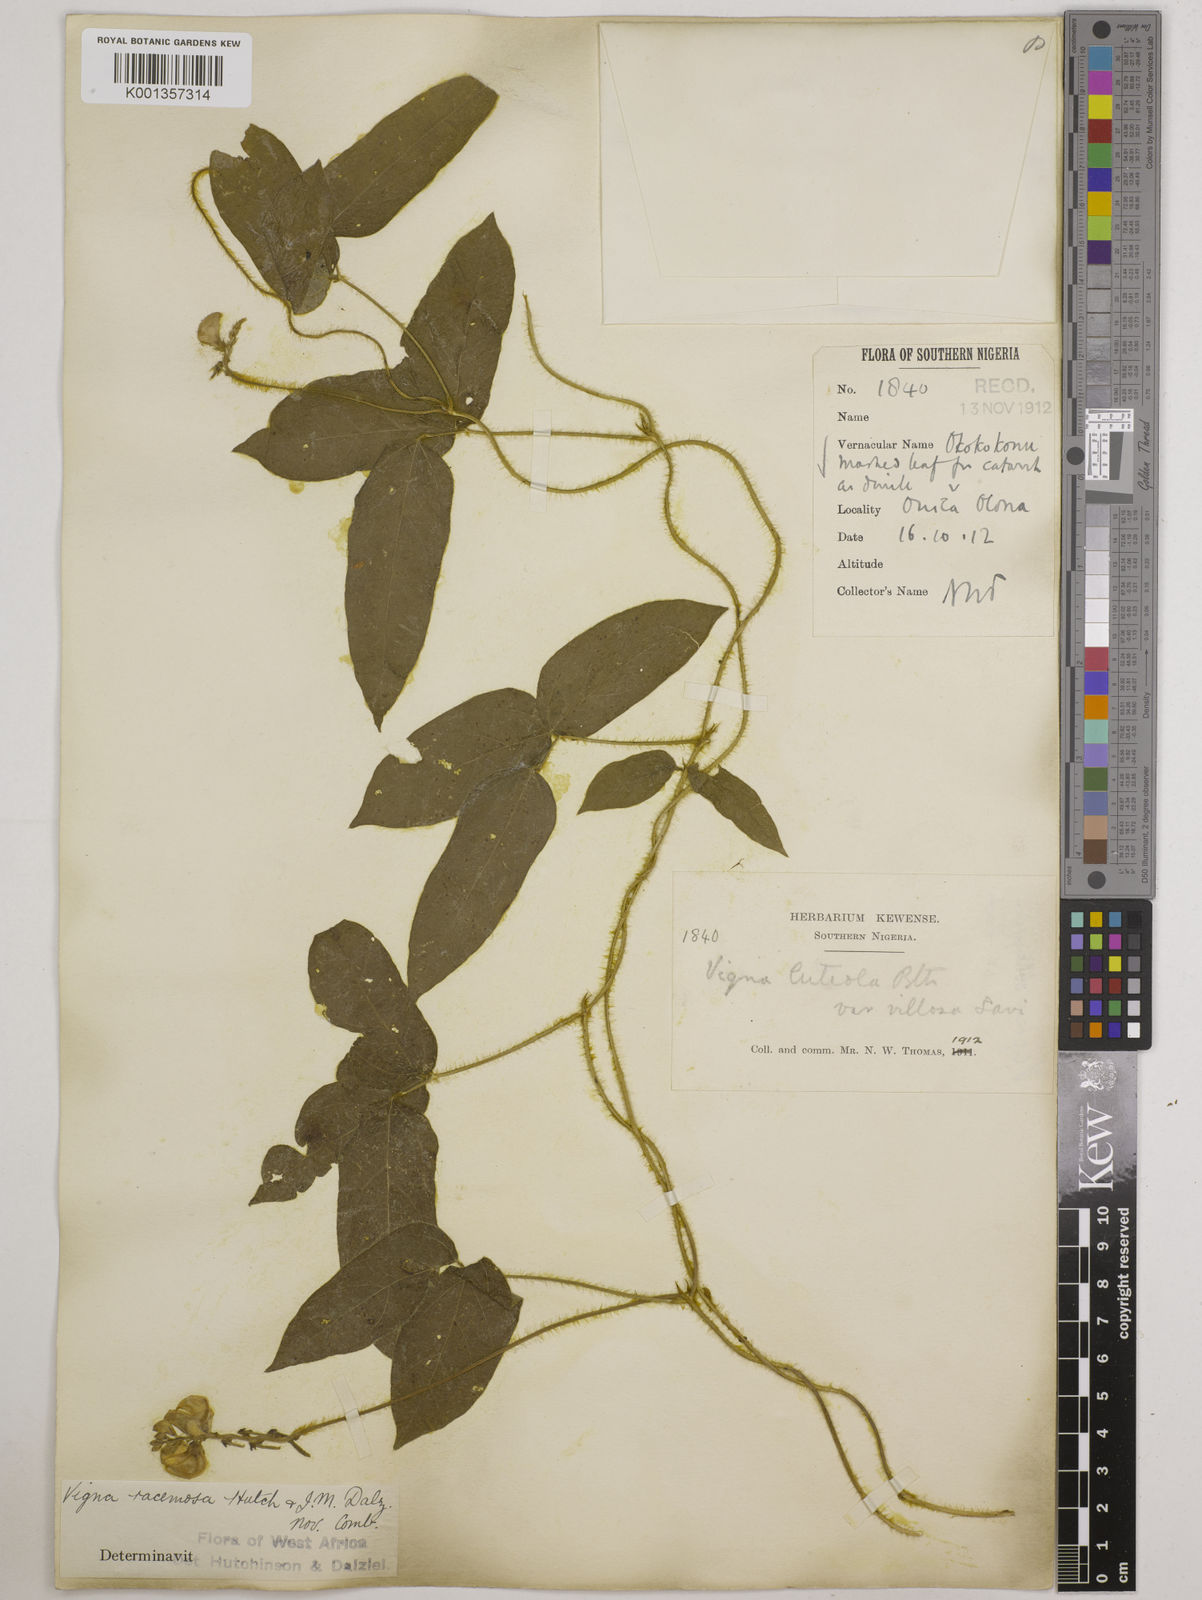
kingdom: Plantae
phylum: Tracheophyta
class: Magnoliopsida
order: Fabales
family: Fabaceae
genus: Vigna
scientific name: Vigna racemosa
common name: Beans not eaten
